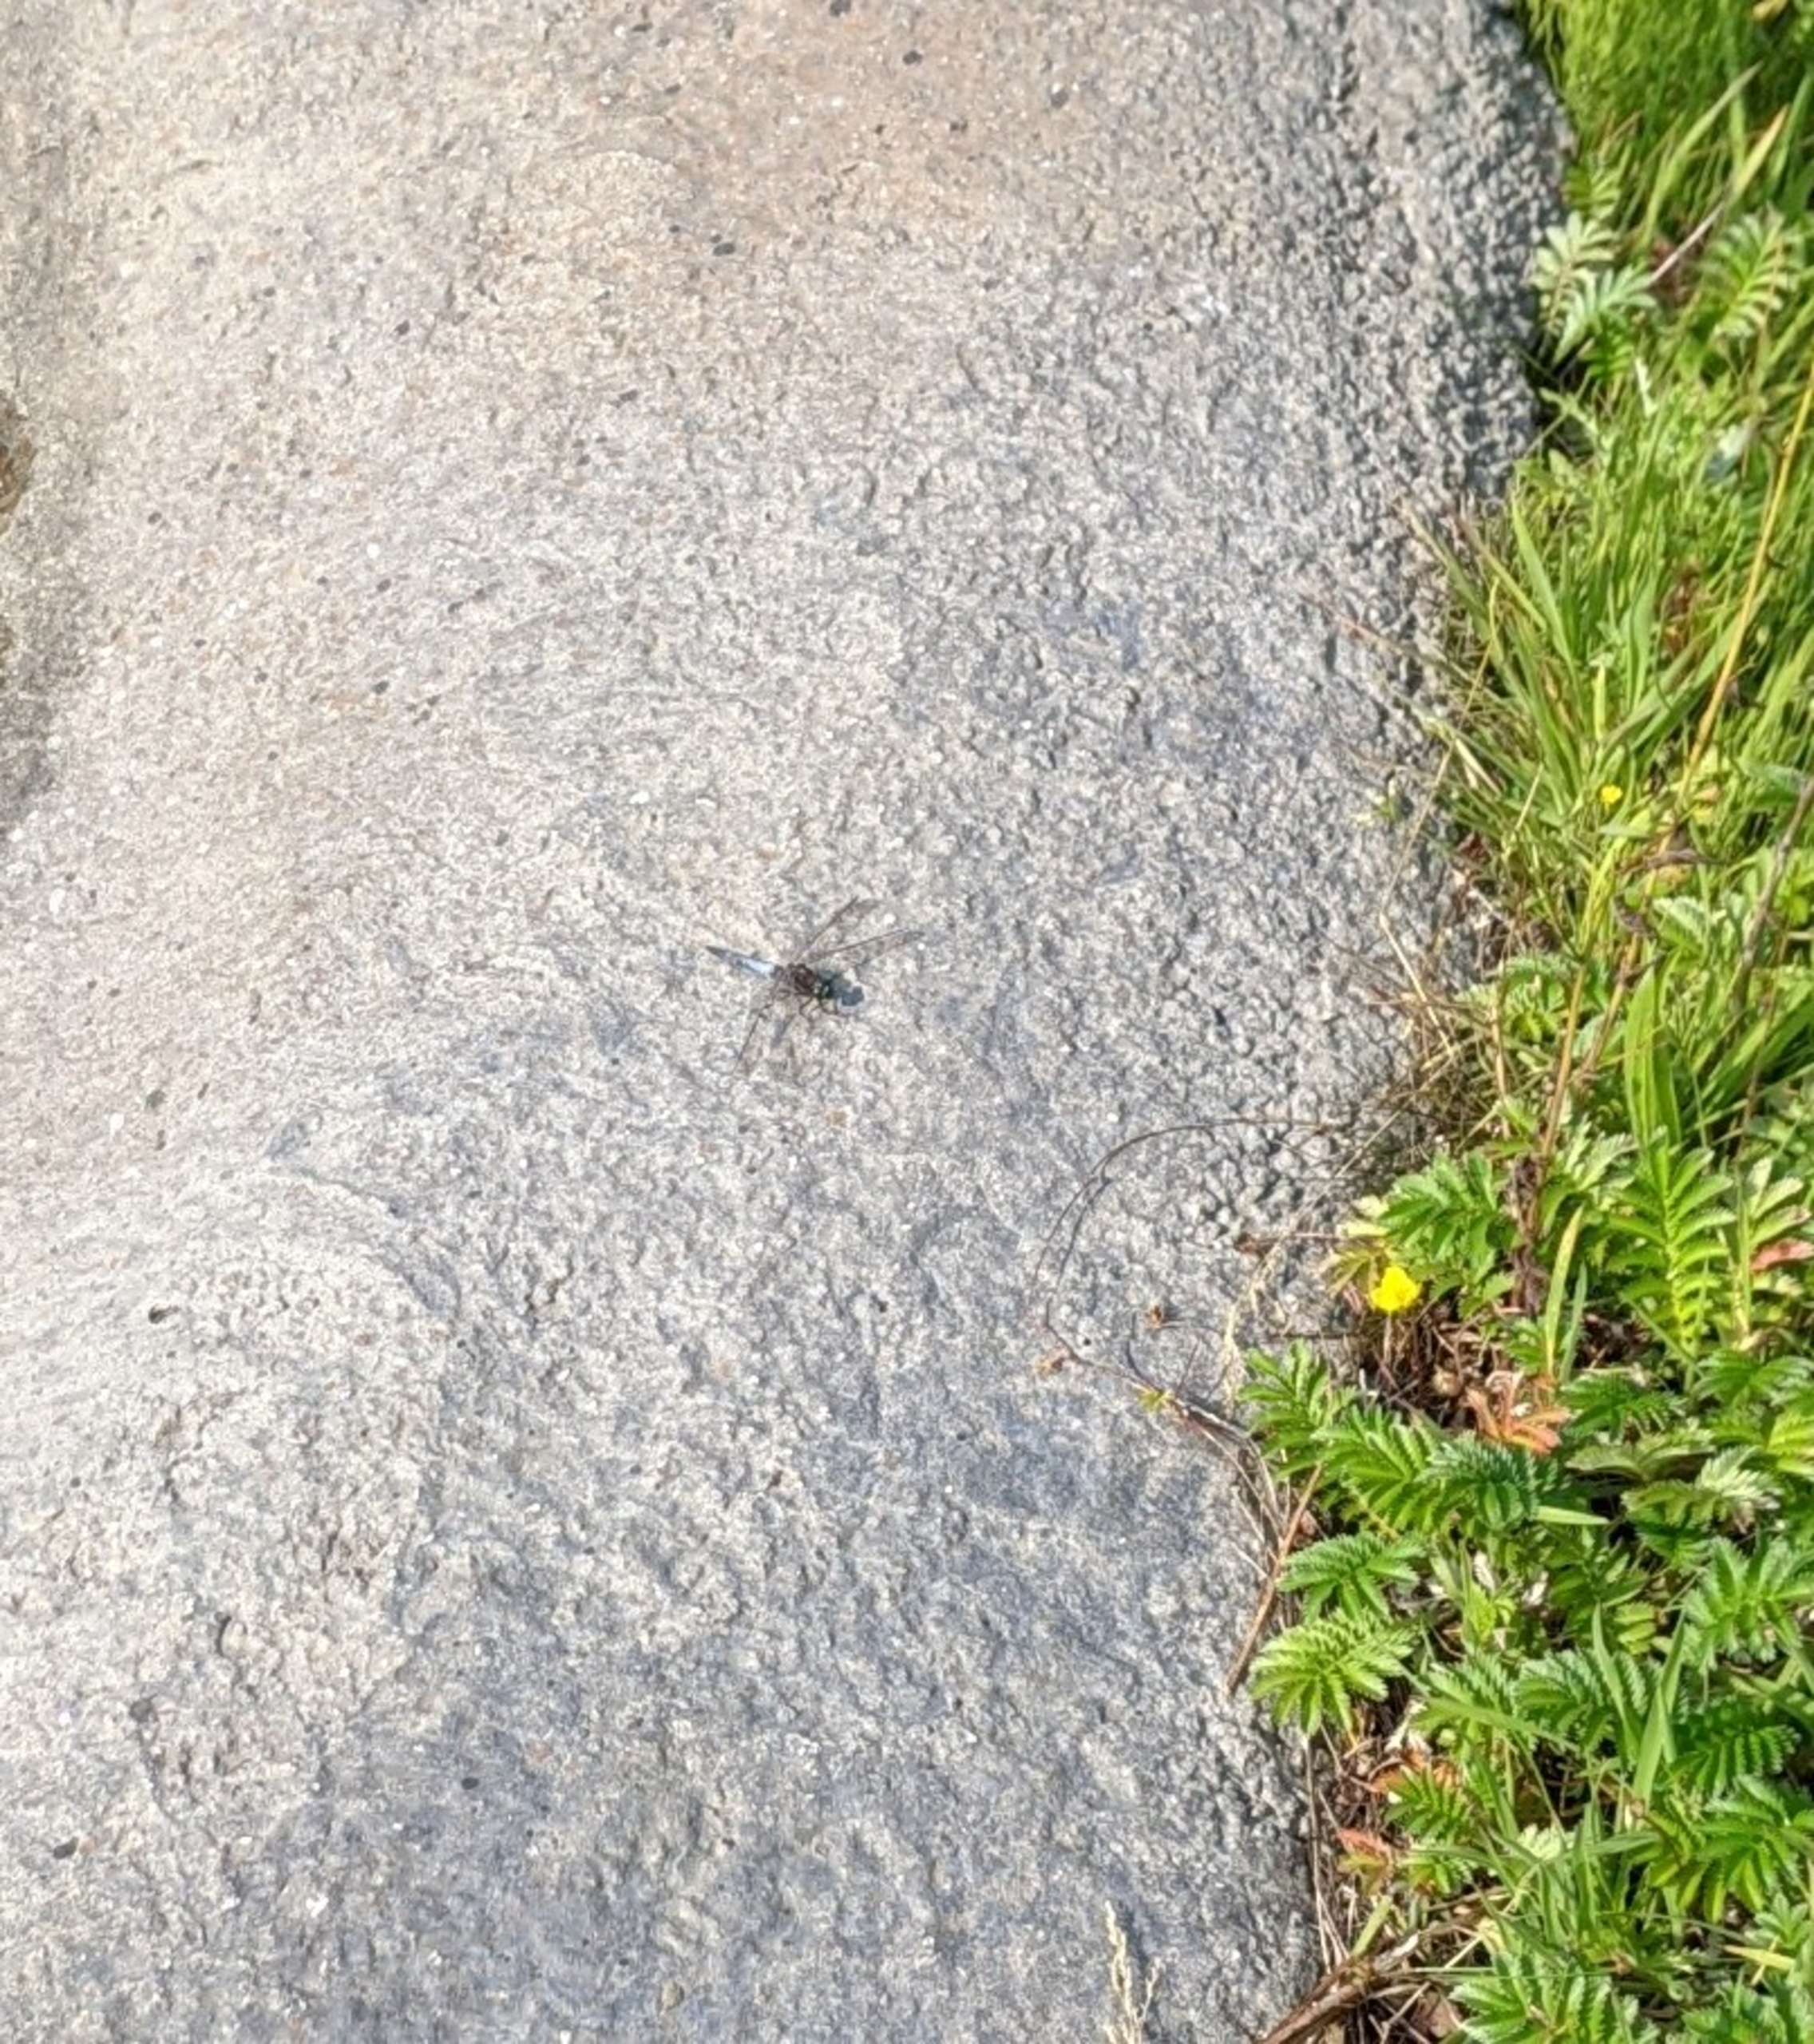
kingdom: Animalia
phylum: Arthropoda
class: Insecta
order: Odonata
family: Libellulidae
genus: Orthetrum
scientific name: Orthetrum cancellatum
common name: Stor blåpil
